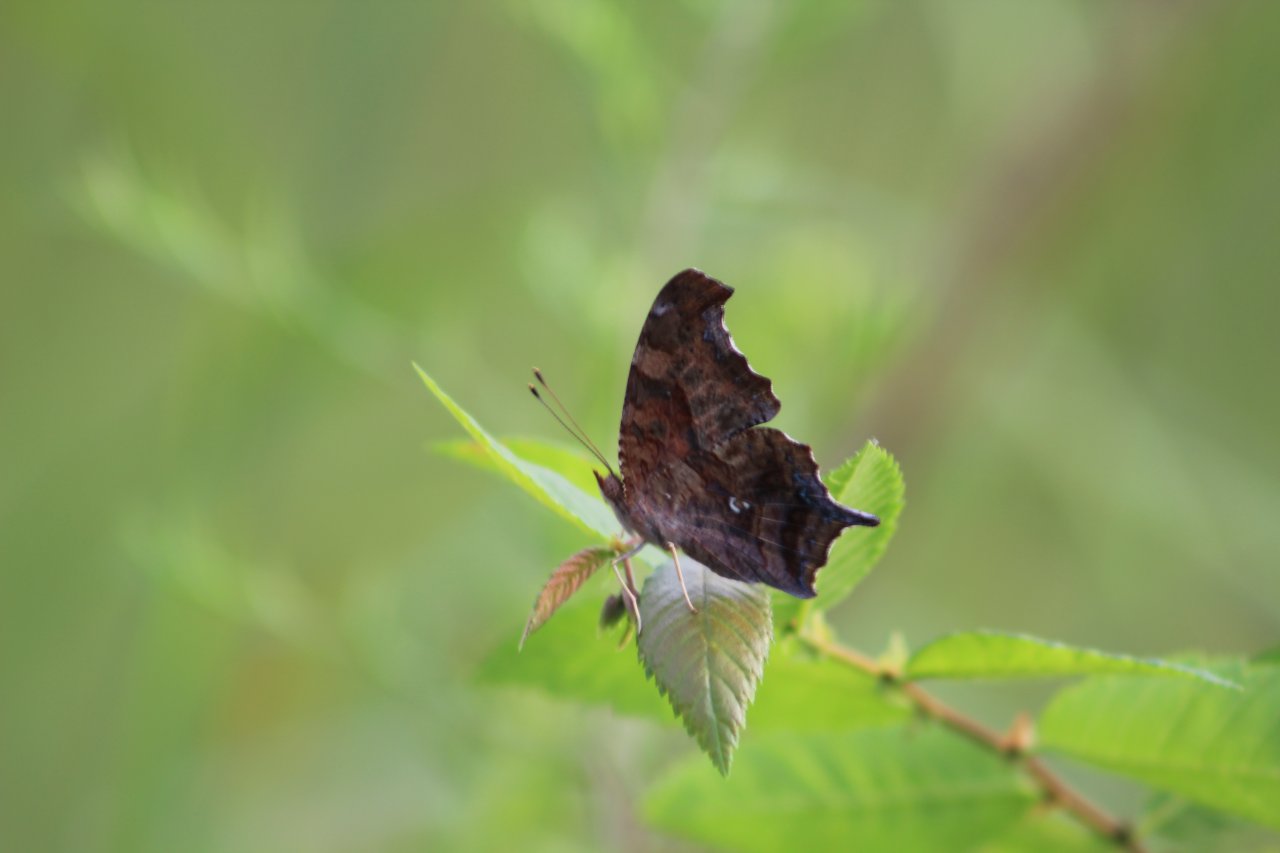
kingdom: Animalia
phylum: Arthropoda
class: Insecta
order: Lepidoptera
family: Nymphalidae
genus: Polygonia
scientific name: Polygonia
